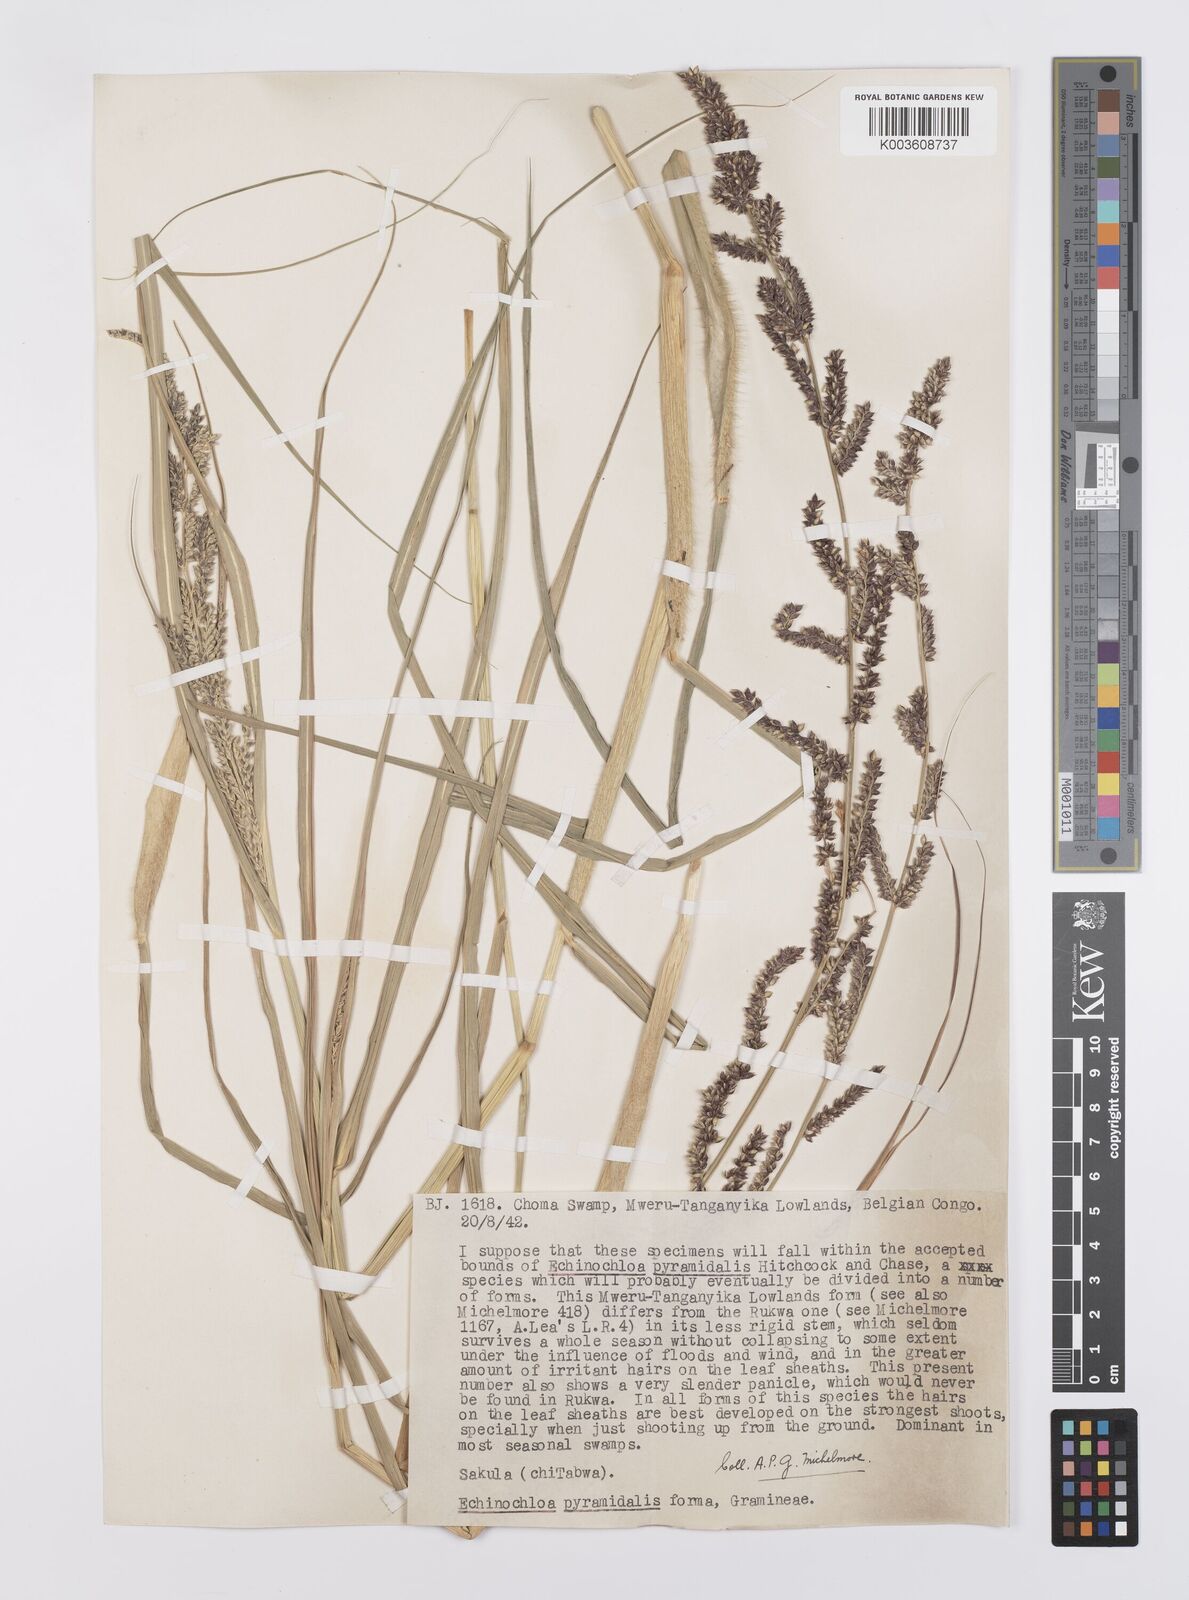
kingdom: Plantae
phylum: Tracheophyta
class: Liliopsida
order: Poales
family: Poaceae
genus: Echinochloa
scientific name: Echinochloa pyramidalis
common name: Antelope grass
